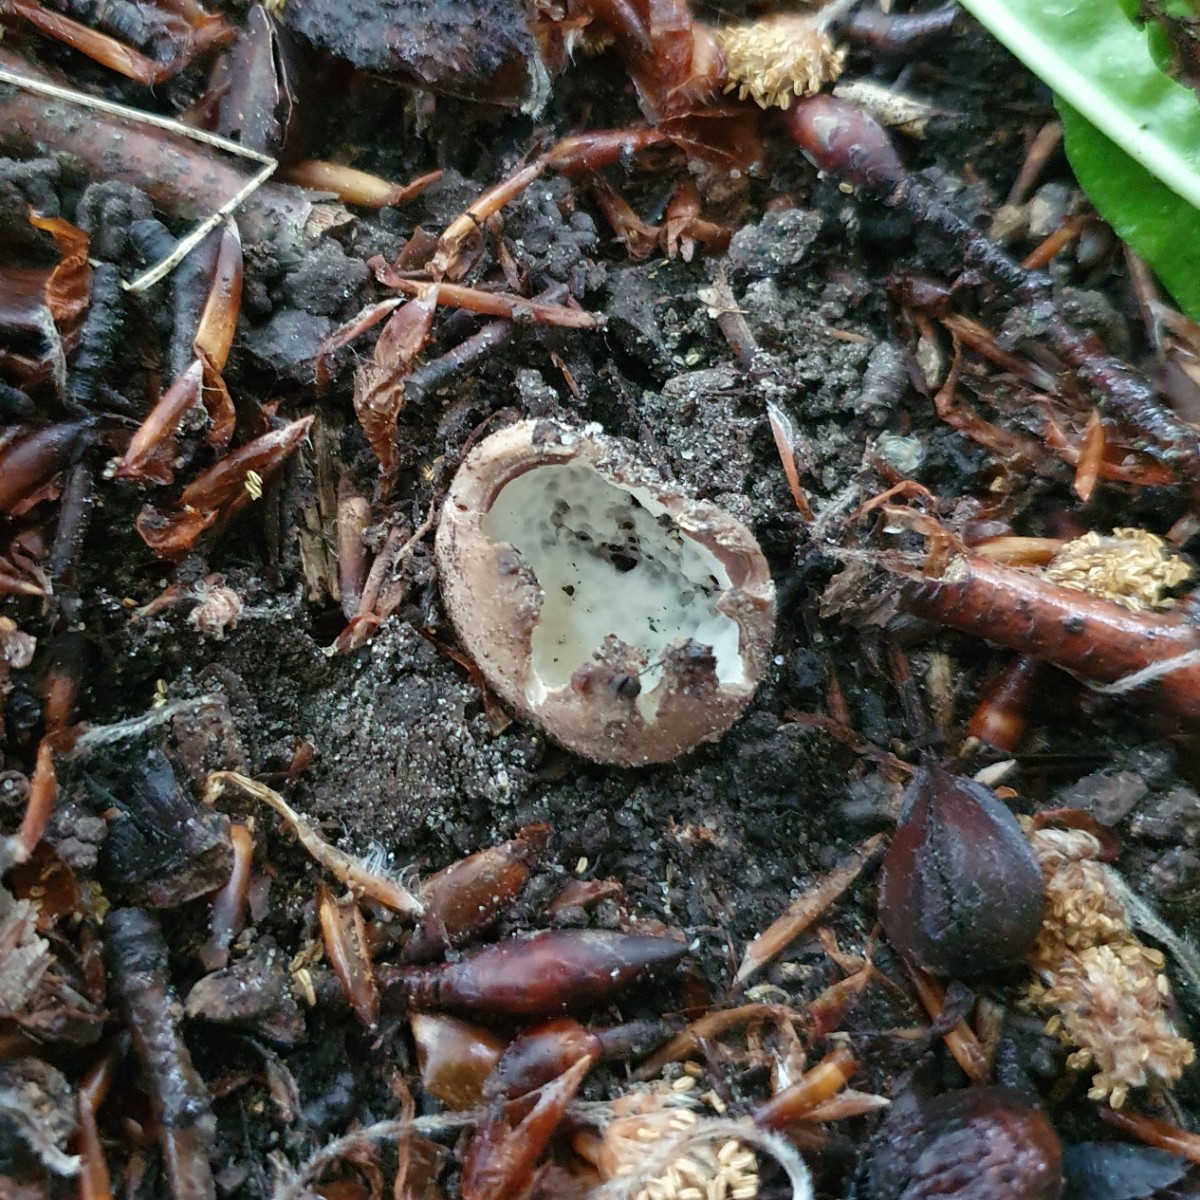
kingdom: Fungi
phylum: Ascomycota
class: Pezizomycetes
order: Pezizales
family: Pezizaceae
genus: Sarcosphaera
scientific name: Sarcosphaera coronaria
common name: stjernebæger
